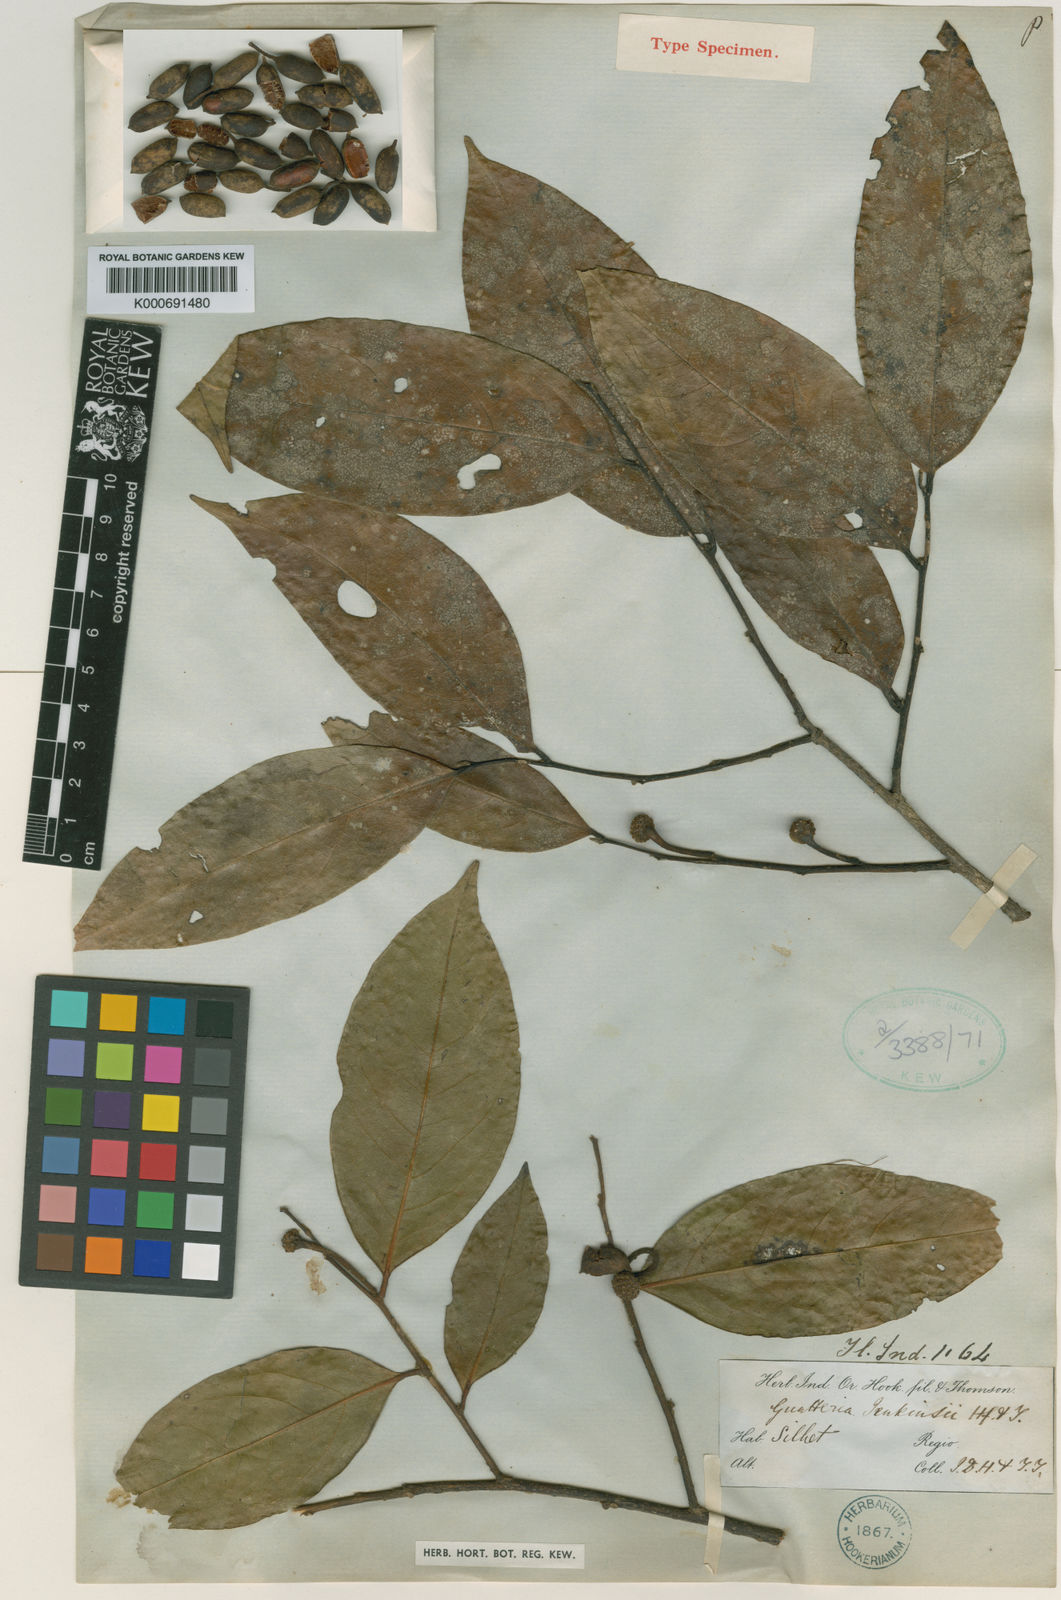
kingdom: Plantae
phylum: Tracheophyta
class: Magnoliopsida
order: Magnoliales
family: Annonaceae
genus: Hubera
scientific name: Hubera jenkinsii
